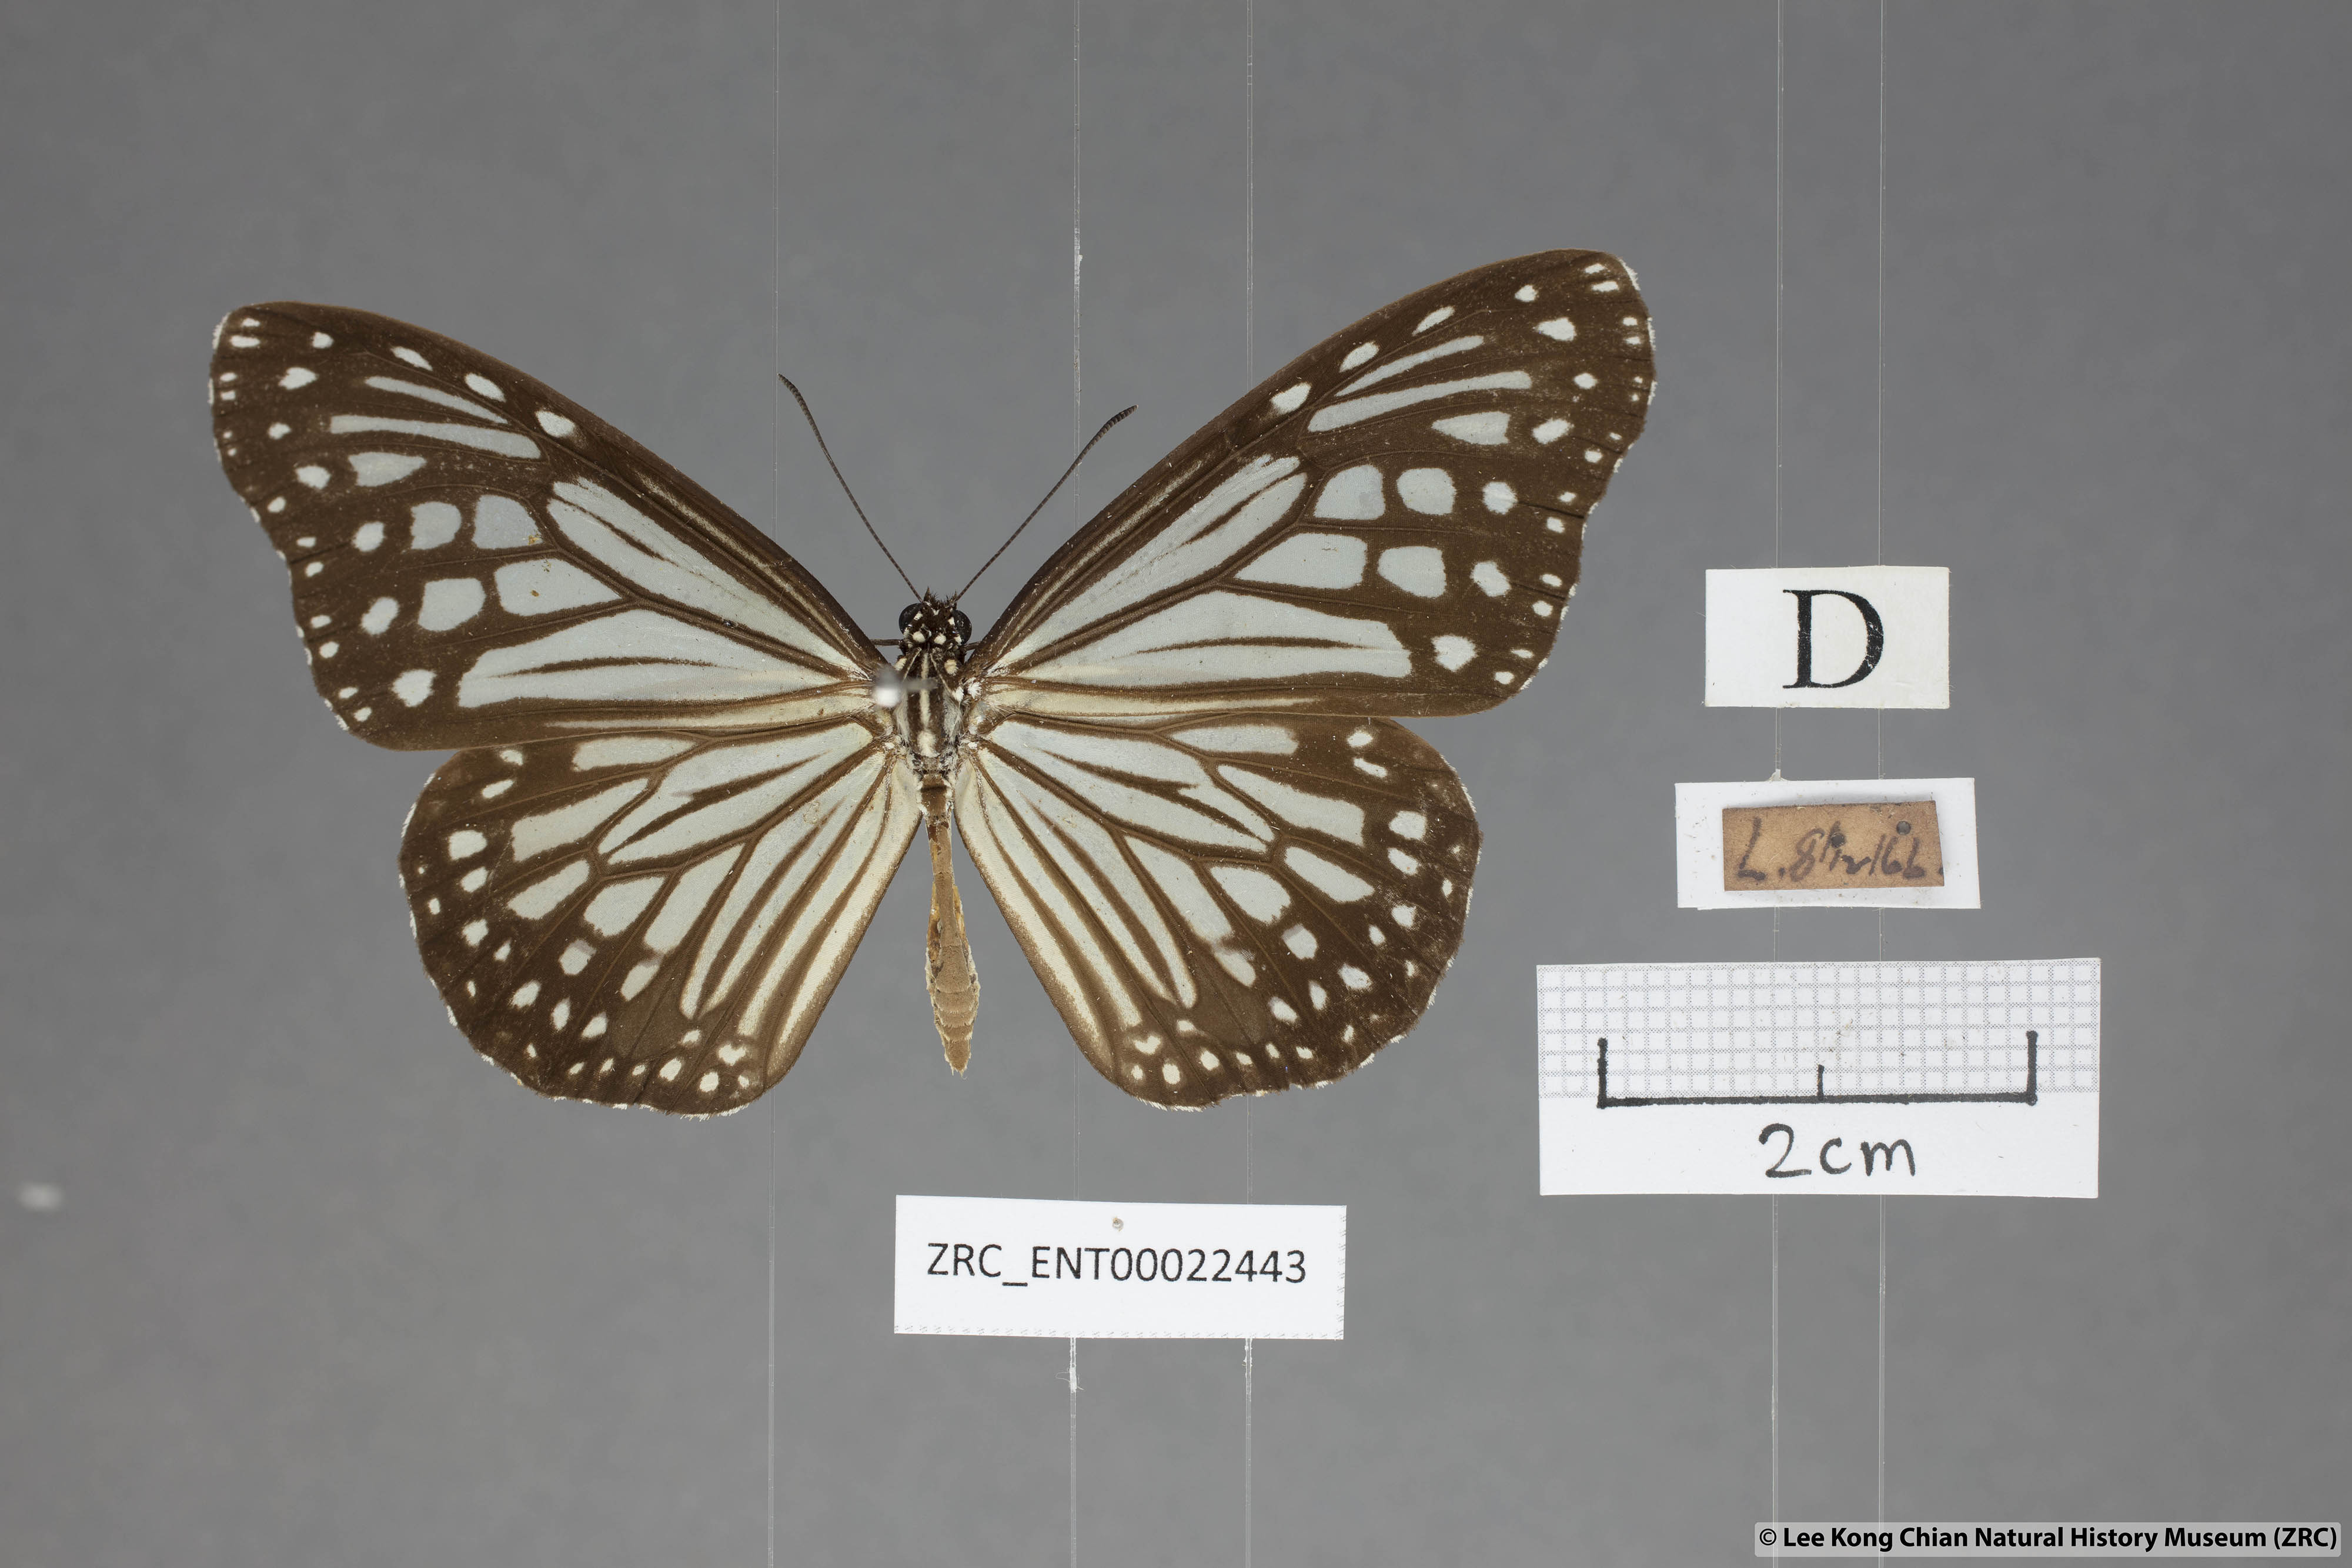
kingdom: Animalia
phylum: Arthropoda
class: Insecta
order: Lepidoptera
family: Nymphalidae
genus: Parantica
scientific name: Parantica aglea
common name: Glassy tiger
